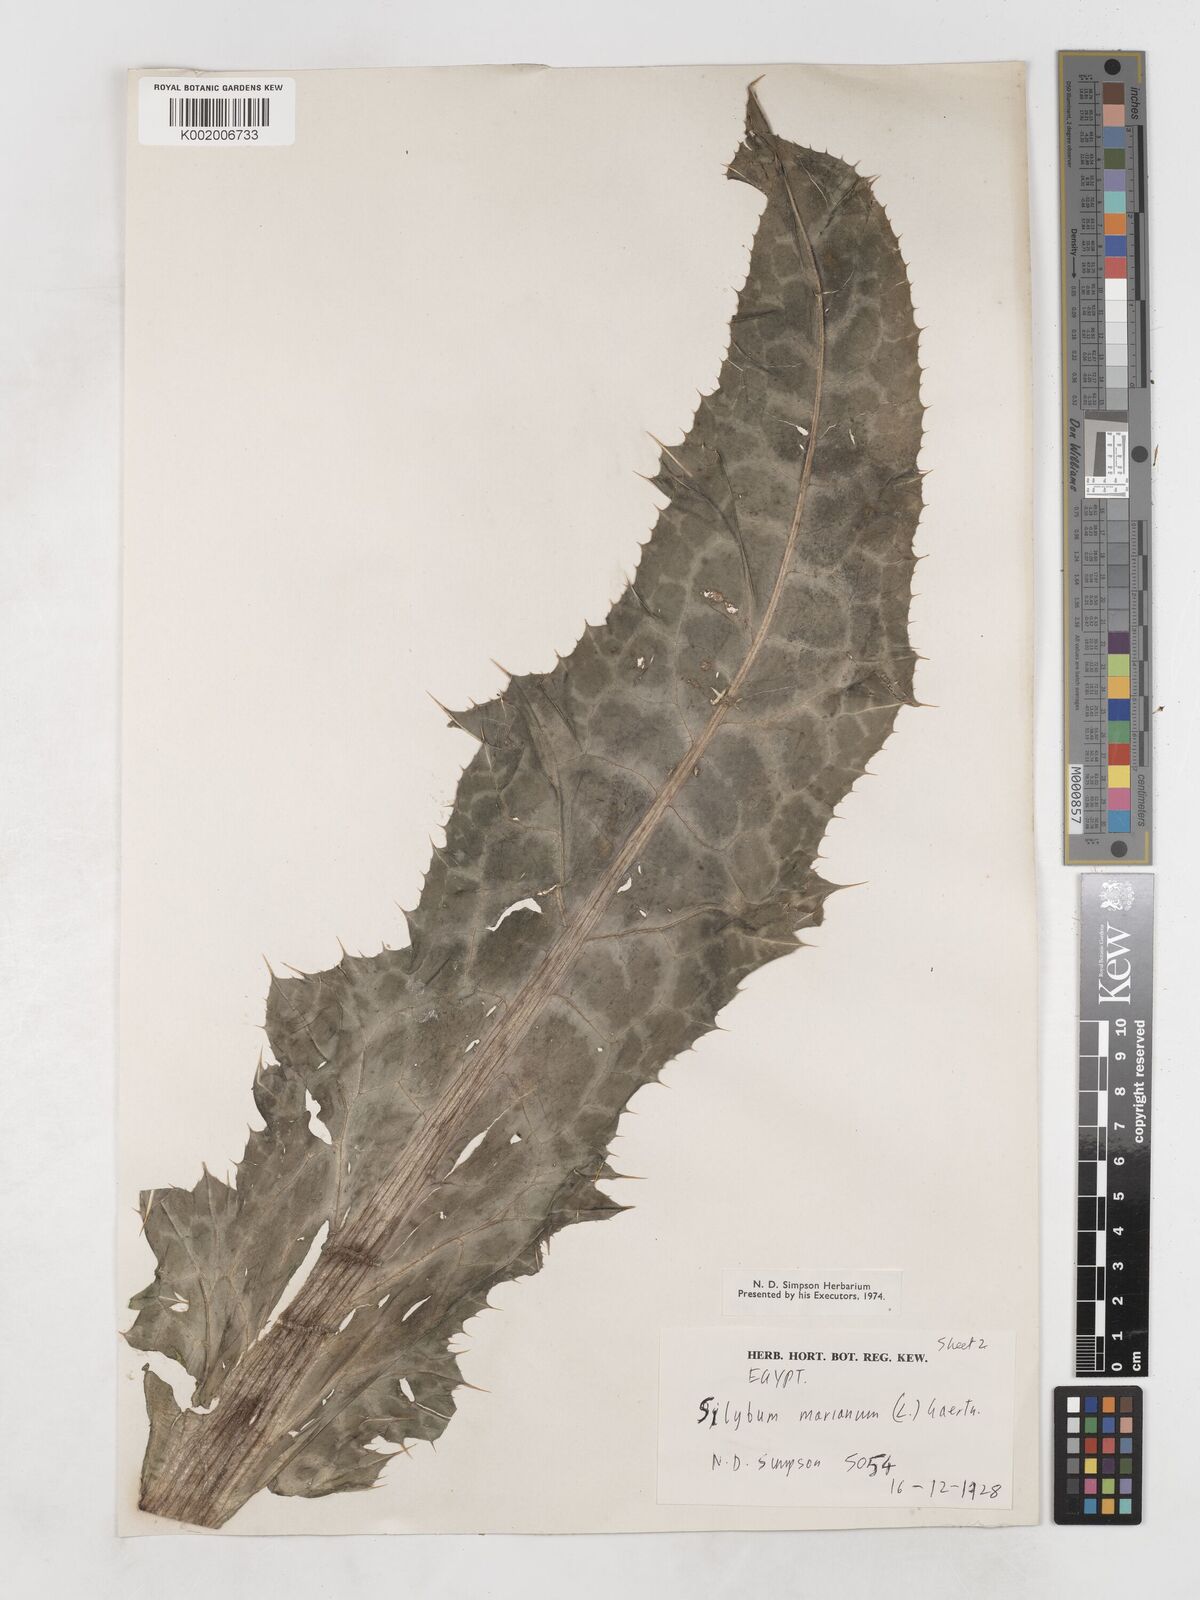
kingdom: Plantae
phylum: Tracheophyta
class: Magnoliopsida
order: Asterales
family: Asteraceae
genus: Silybum
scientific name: Silybum marianum
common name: Milk thistle
